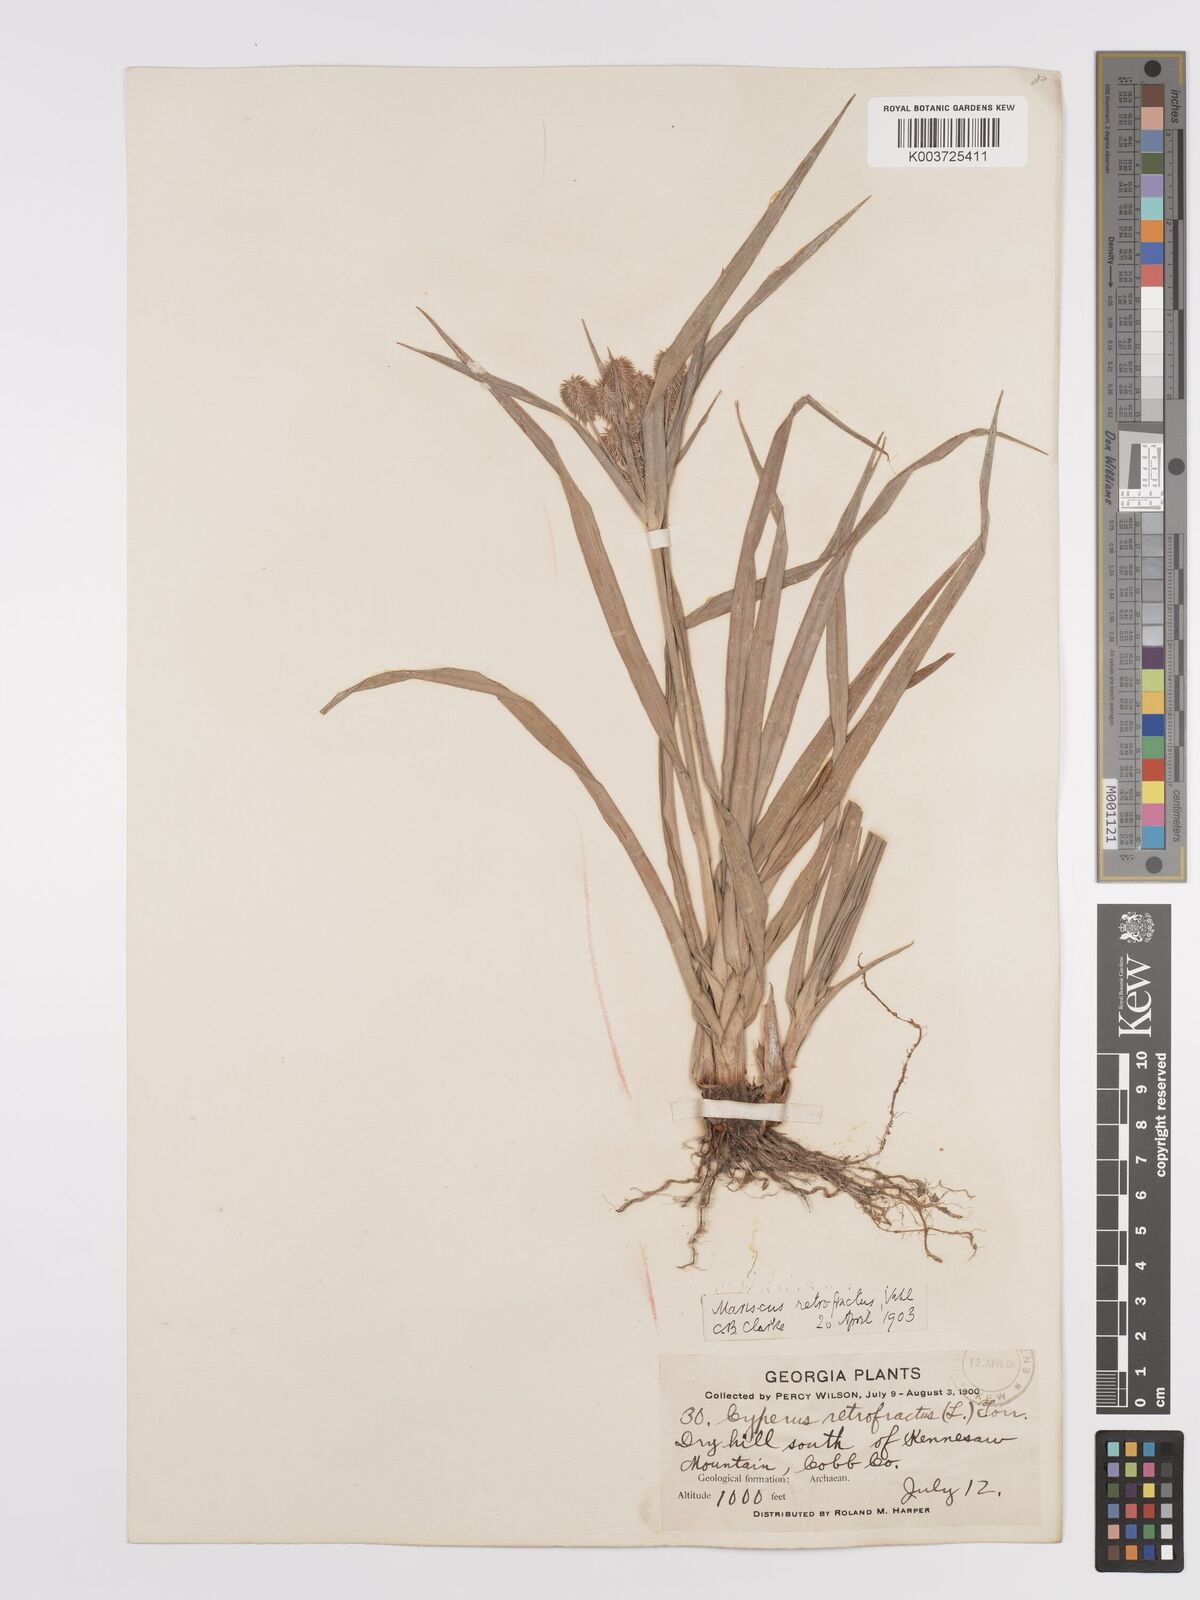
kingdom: Plantae
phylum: Tracheophyta
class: Liliopsida
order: Poales
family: Cyperaceae
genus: Cyperus
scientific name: Cyperus retrofractus
